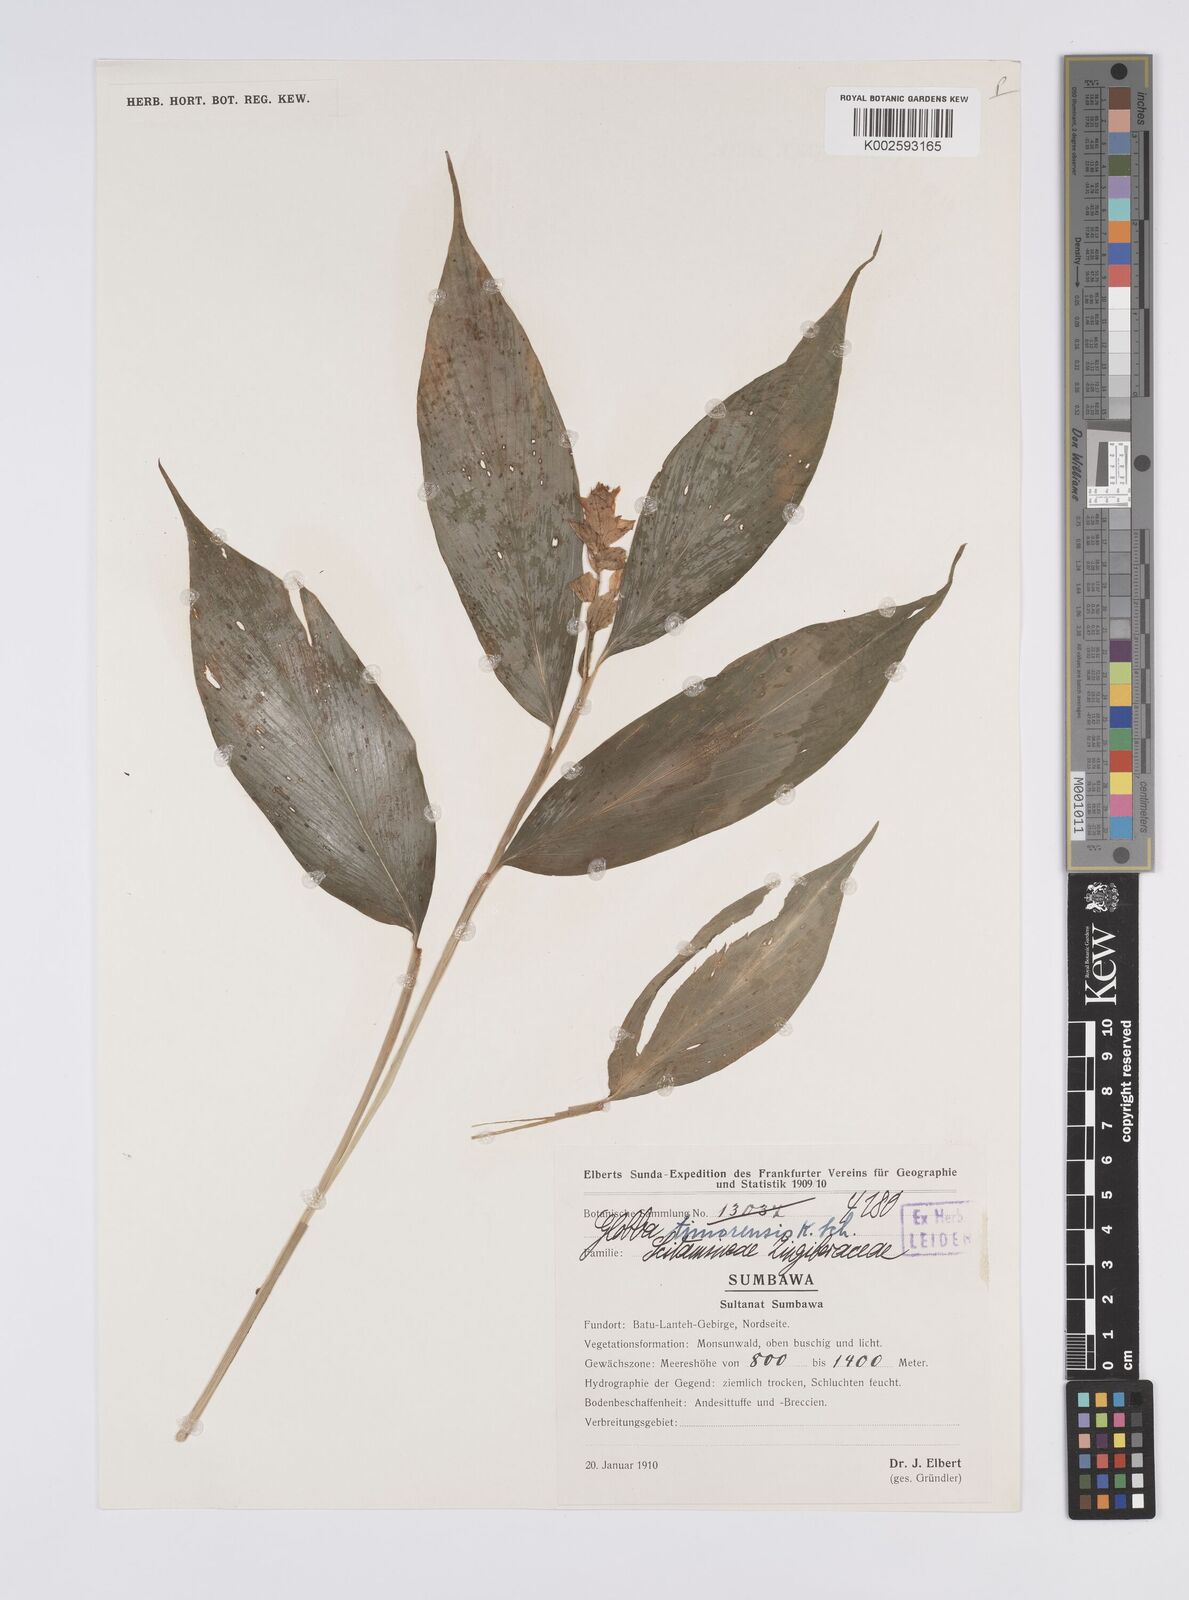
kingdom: Plantae
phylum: Tracheophyta
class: Liliopsida
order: Zingiberales
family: Zingiberaceae
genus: Globba
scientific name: Globba marantina
